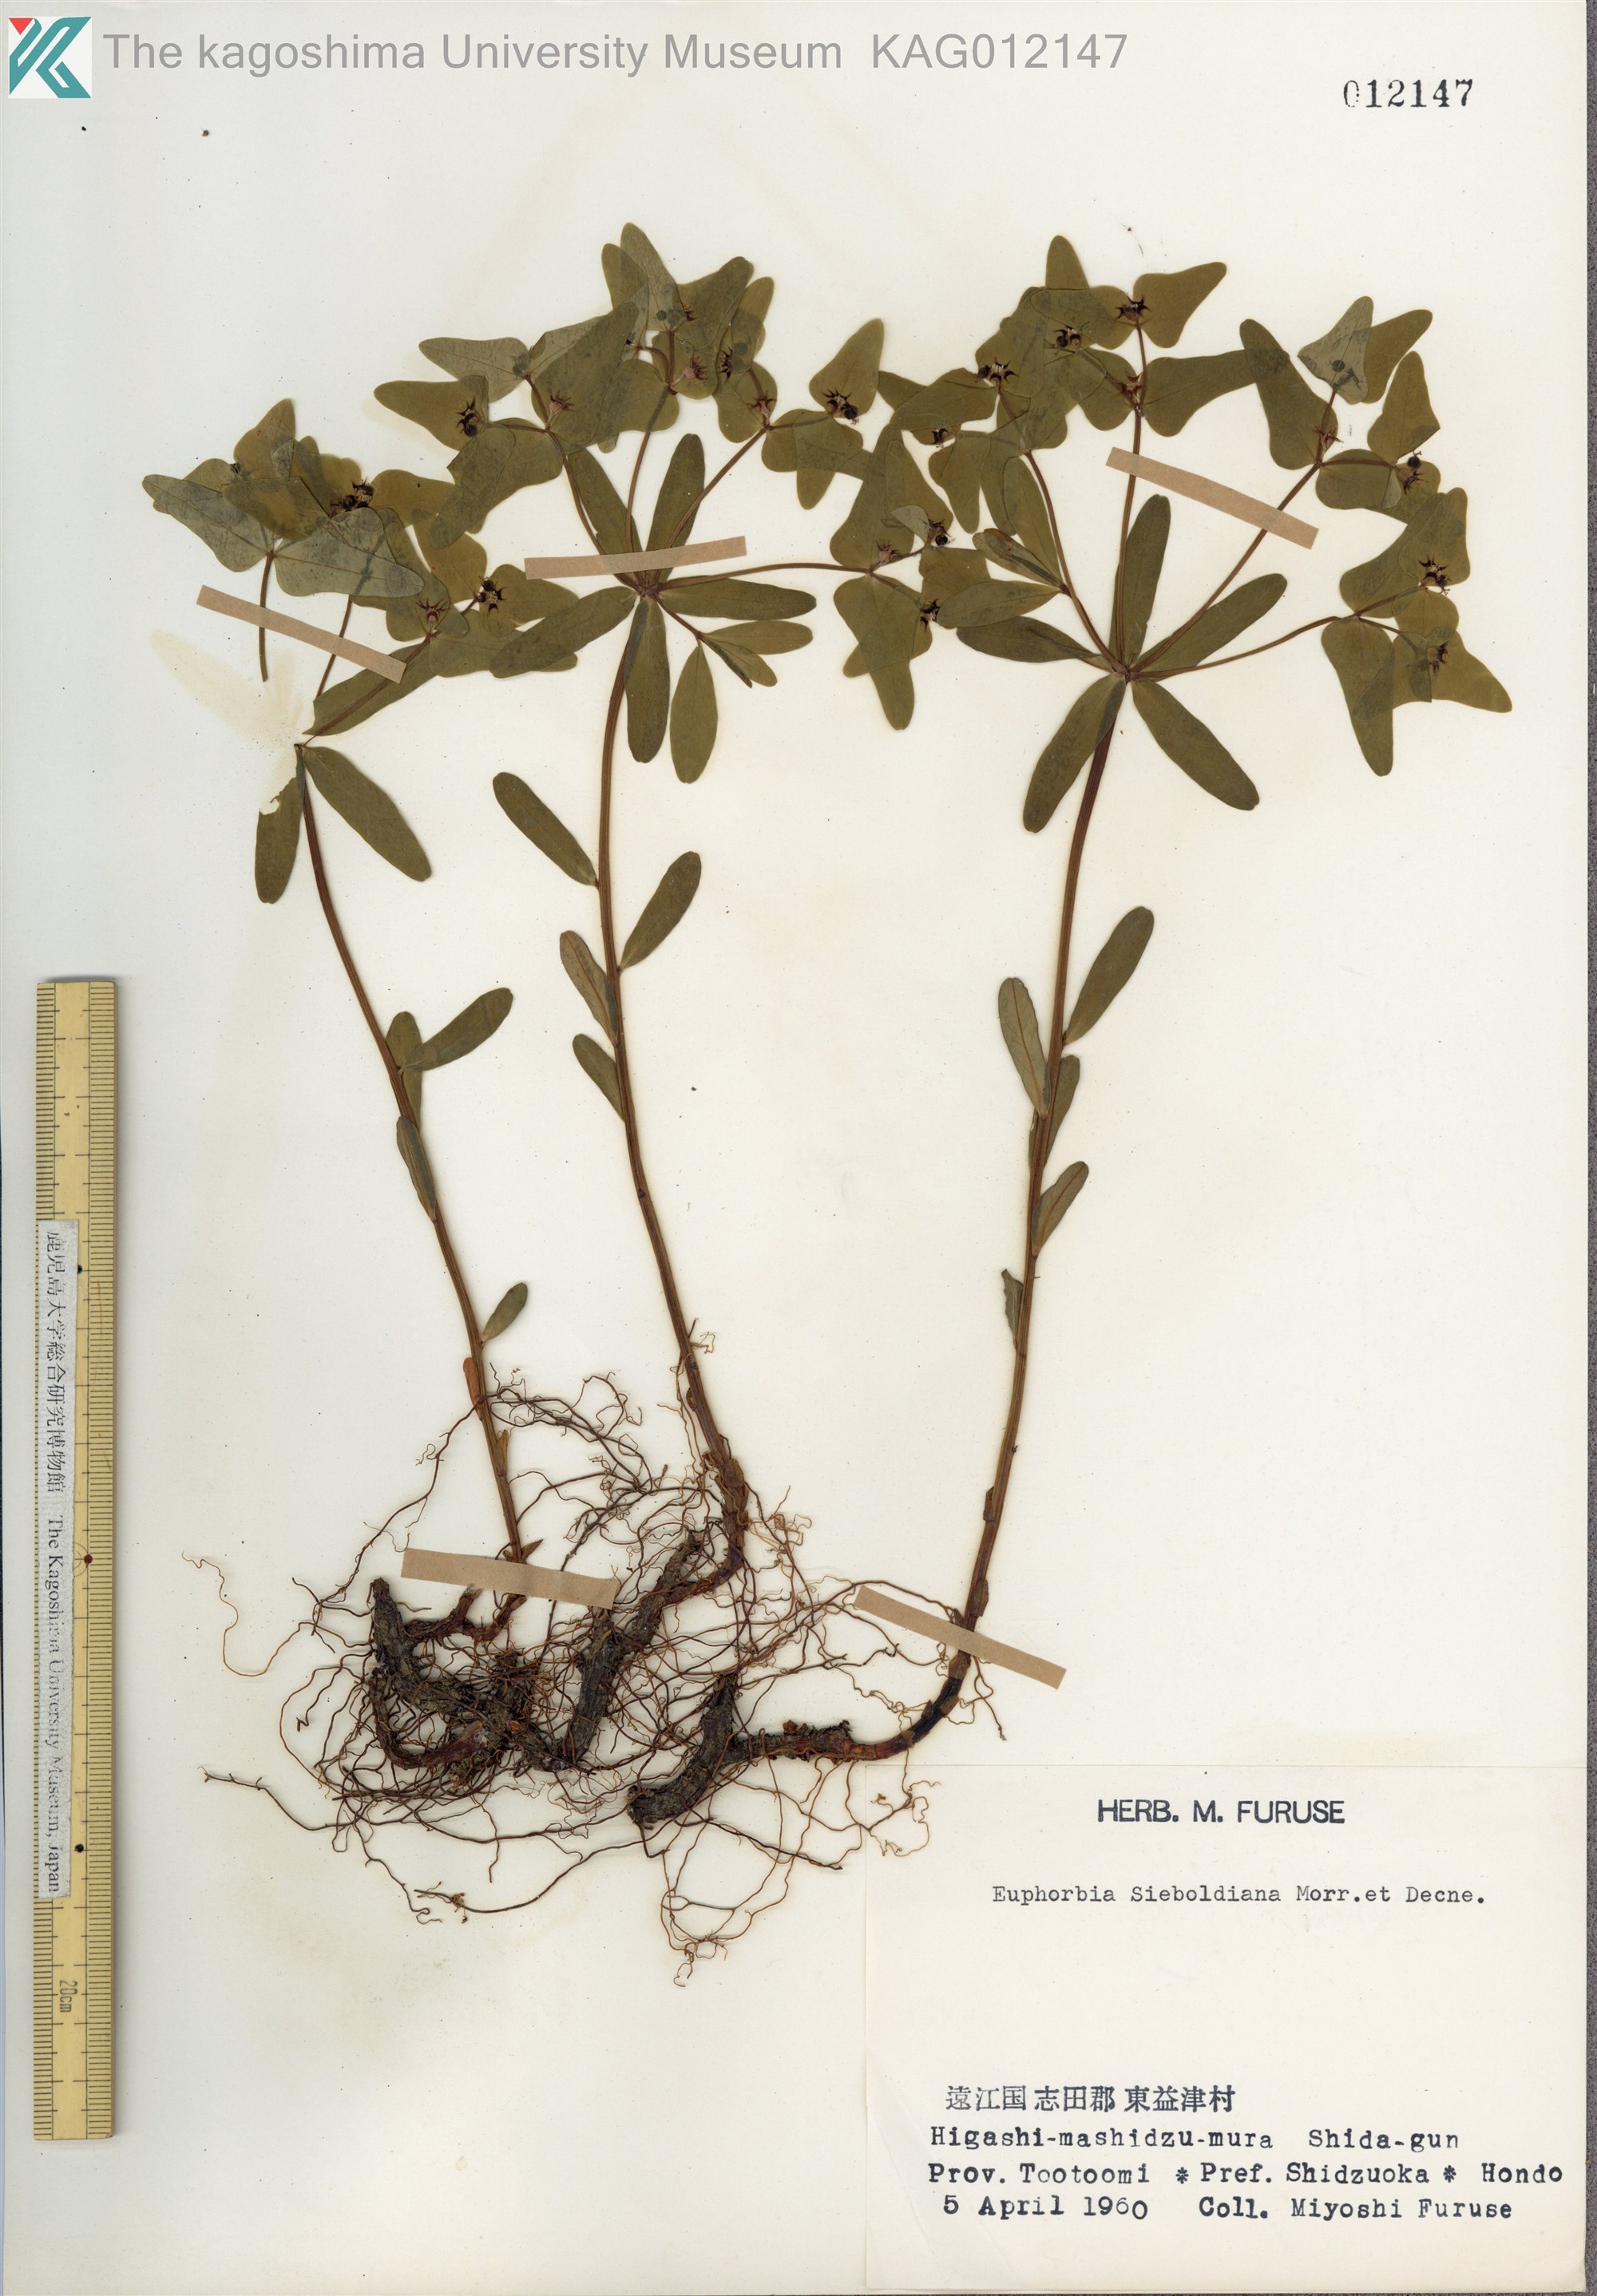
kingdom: Plantae
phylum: Tracheophyta
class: Magnoliopsida
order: Malpighiales
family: Euphorbiaceae
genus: Euphorbia
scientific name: Euphorbia sieboldiana
